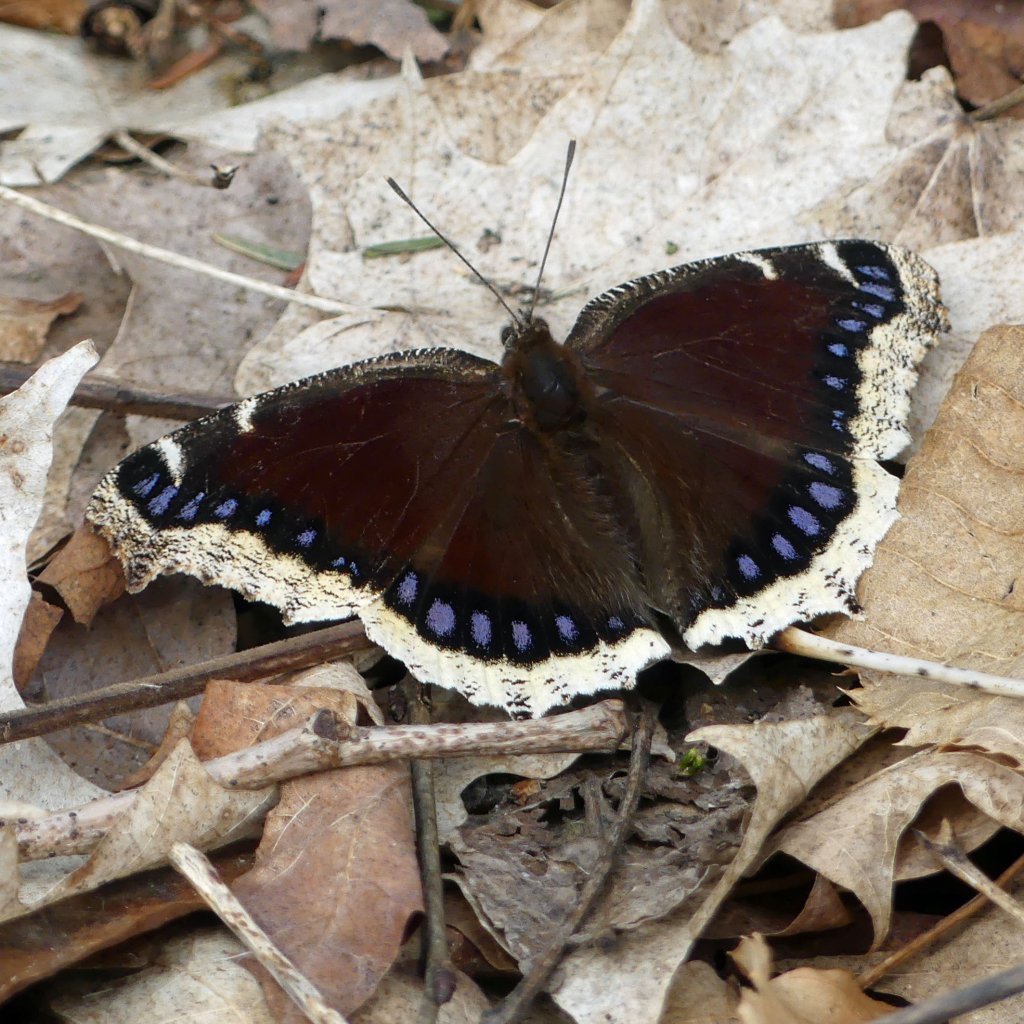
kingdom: Animalia
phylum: Arthropoda
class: Insecta
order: Lepidoptera
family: Nymphalidae
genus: Nymphalis
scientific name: Nymphalis antiopa
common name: Mourning Cloak
